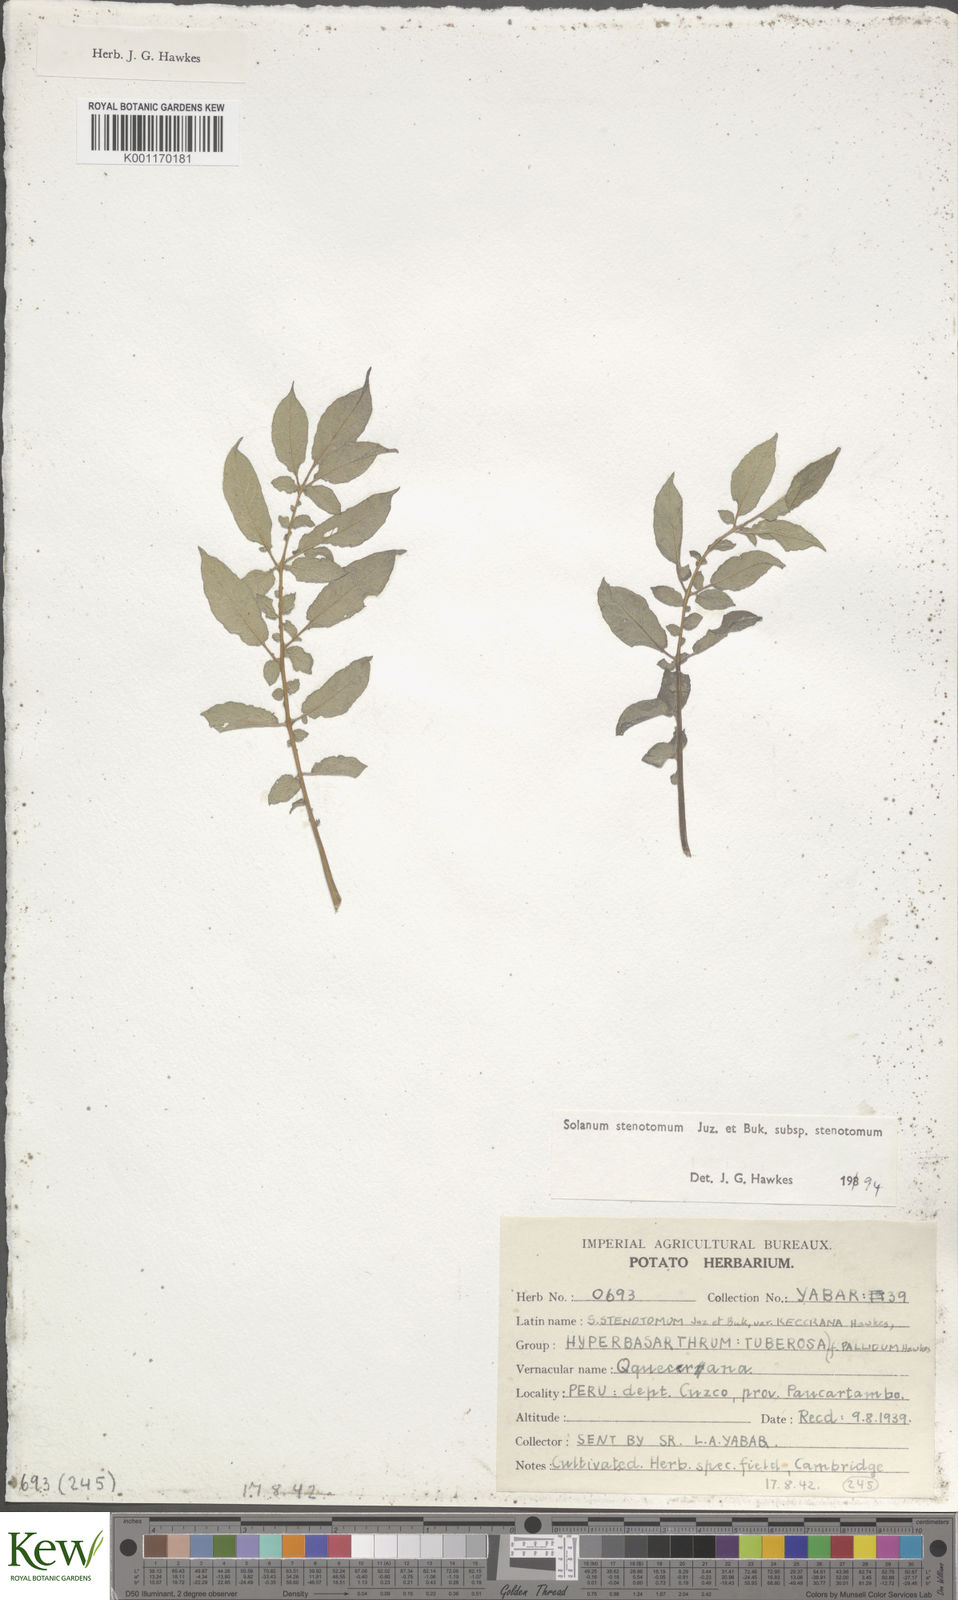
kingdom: Plantae
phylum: Tracheophyta
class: Magnoliopsida
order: Solanales
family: Solanaceae
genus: Solanum
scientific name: Solanum tuberosum
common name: Potato
